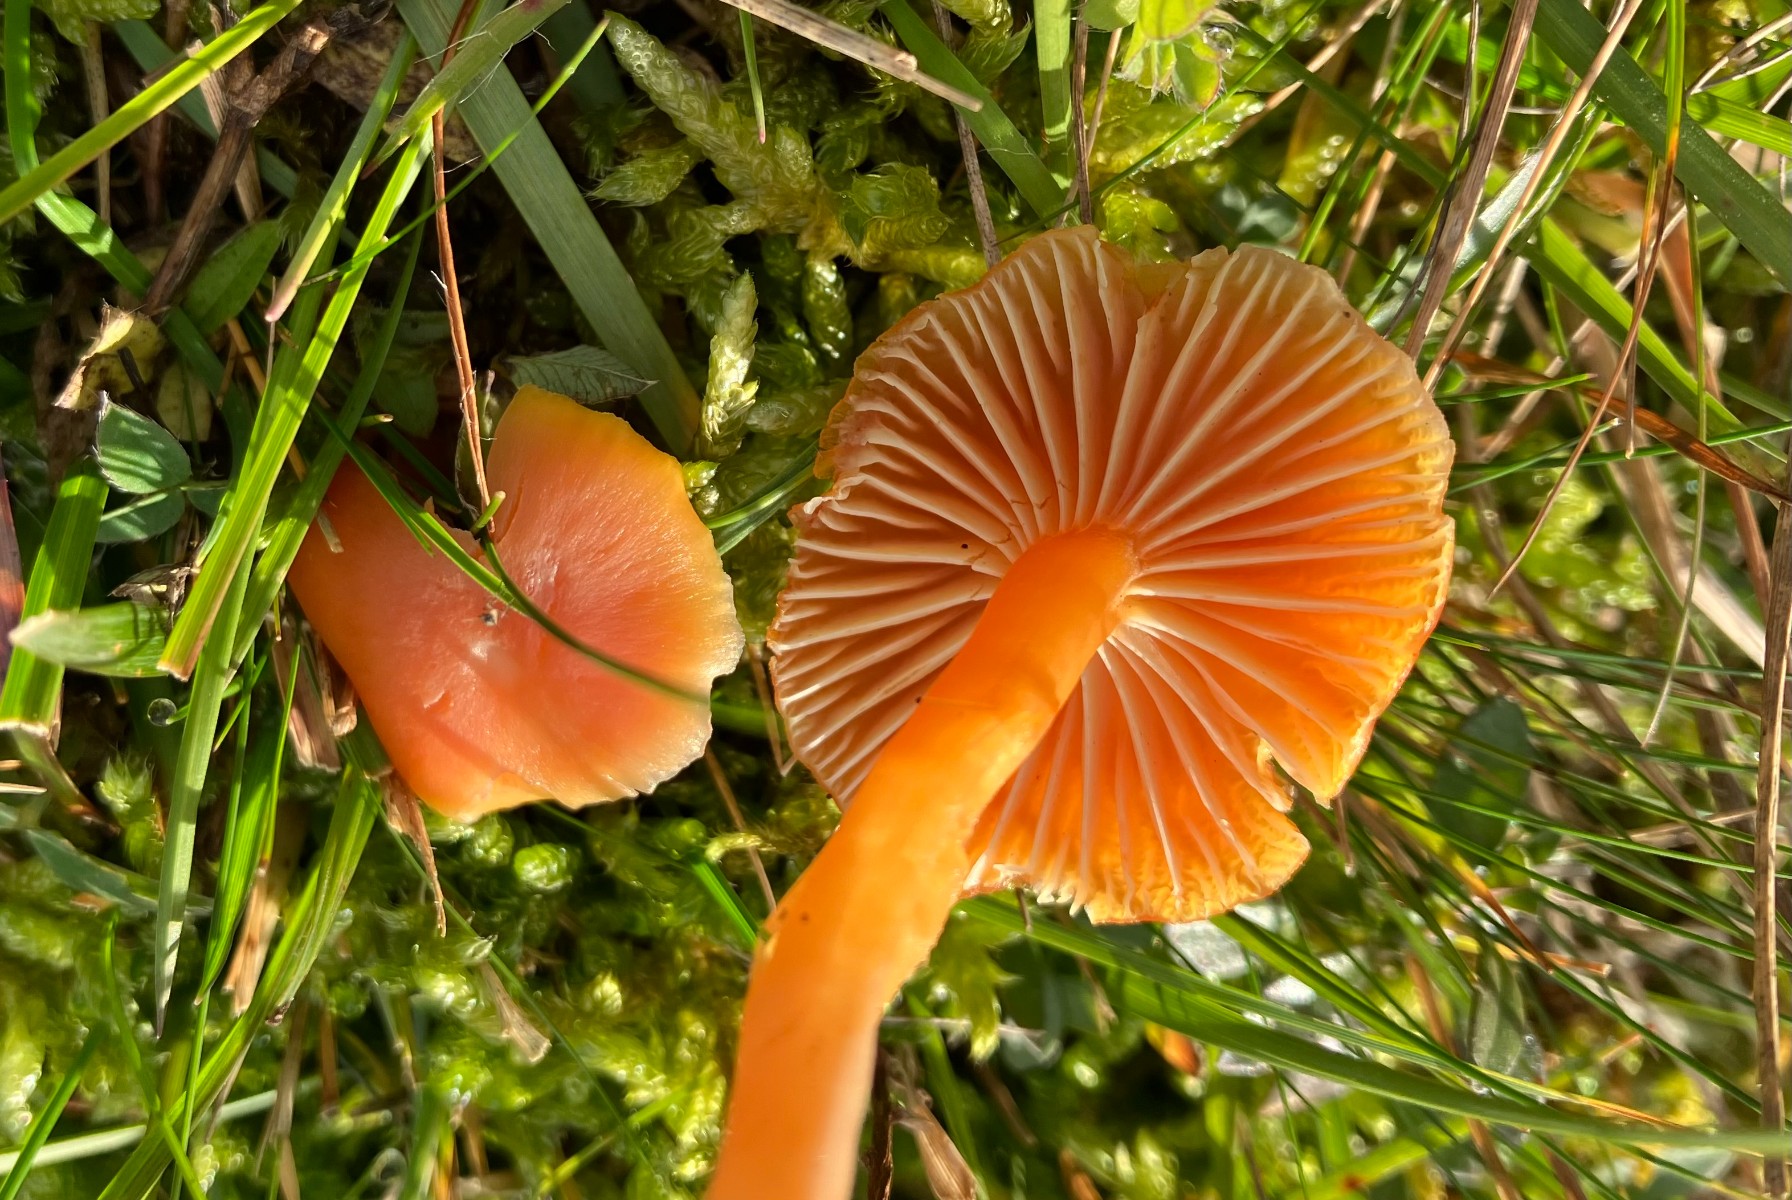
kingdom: Fungi
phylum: Basidiomycota
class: Agaricomycetes
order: Agaricales
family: Hygrophoraceae
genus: Hygrocybe
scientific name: Hygrocybe reidii
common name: honning-vokshat
